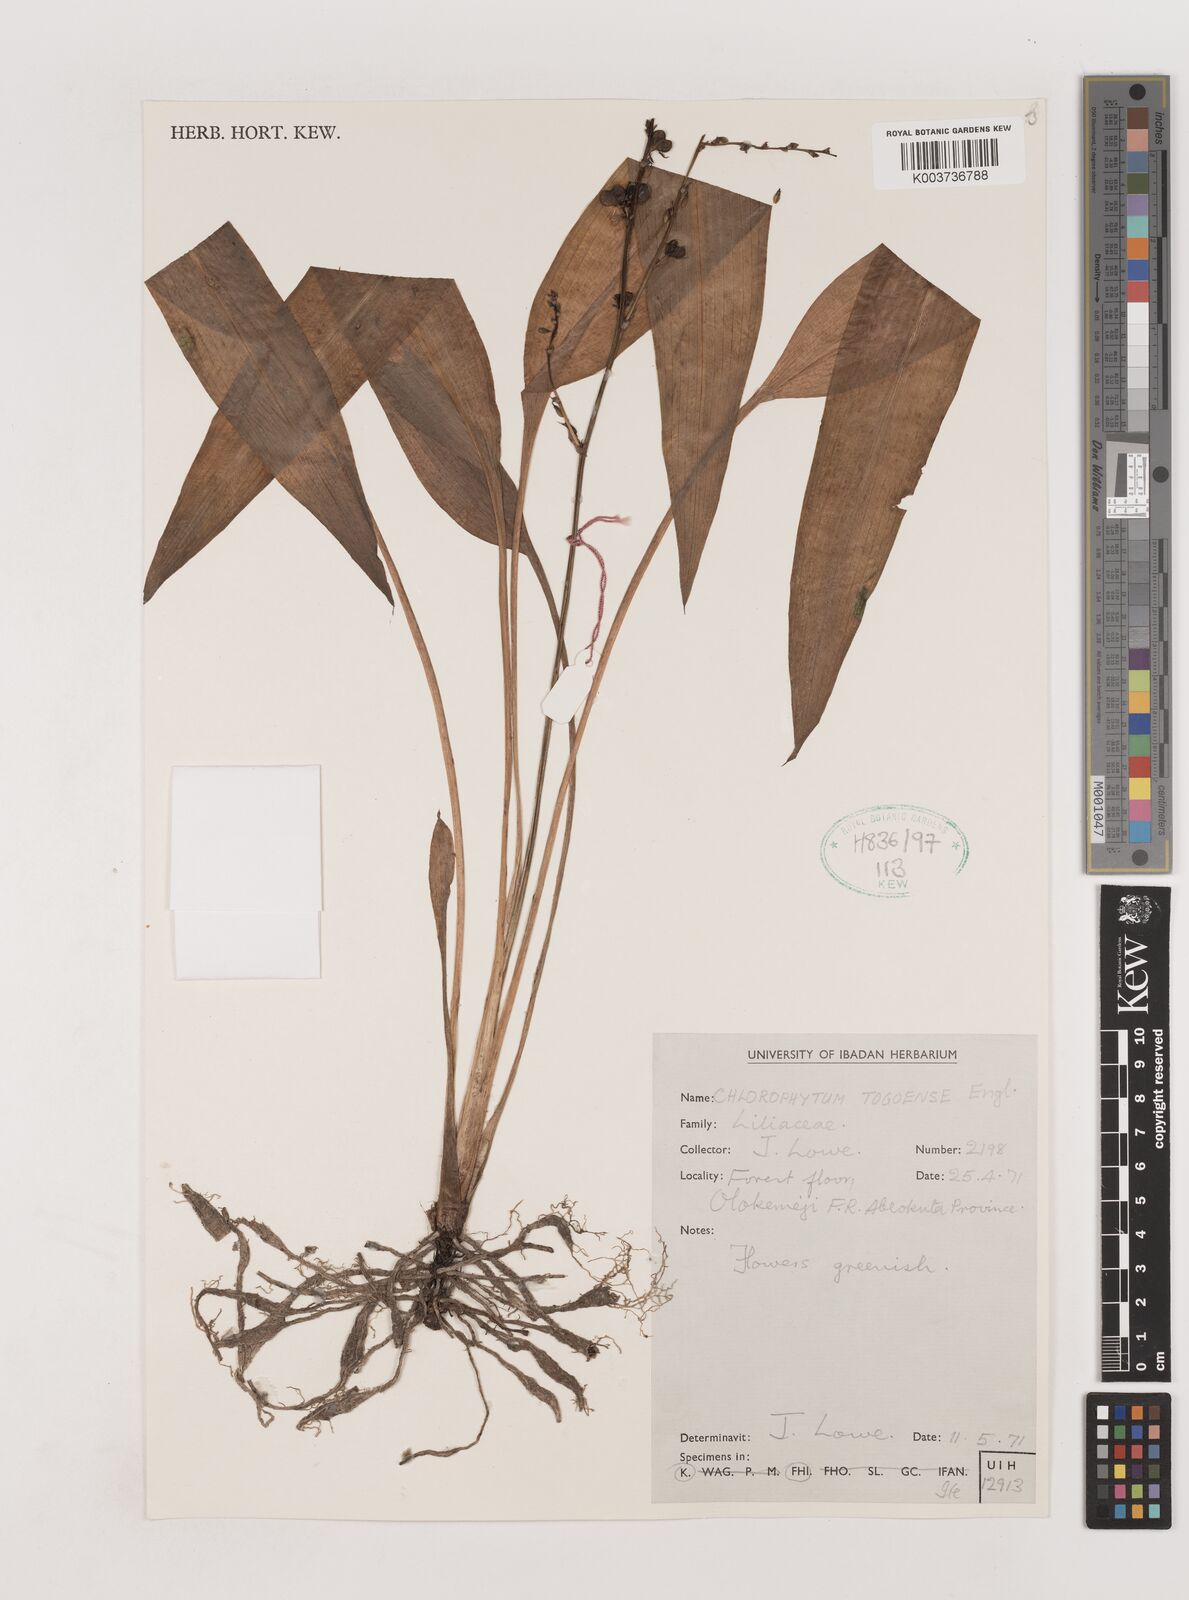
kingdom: Plantae
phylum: Tracheophyta
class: Liliopsida
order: Asparagales
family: Asparagaceae
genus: Chlorophytum
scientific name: Chlorophytum lancifolium
